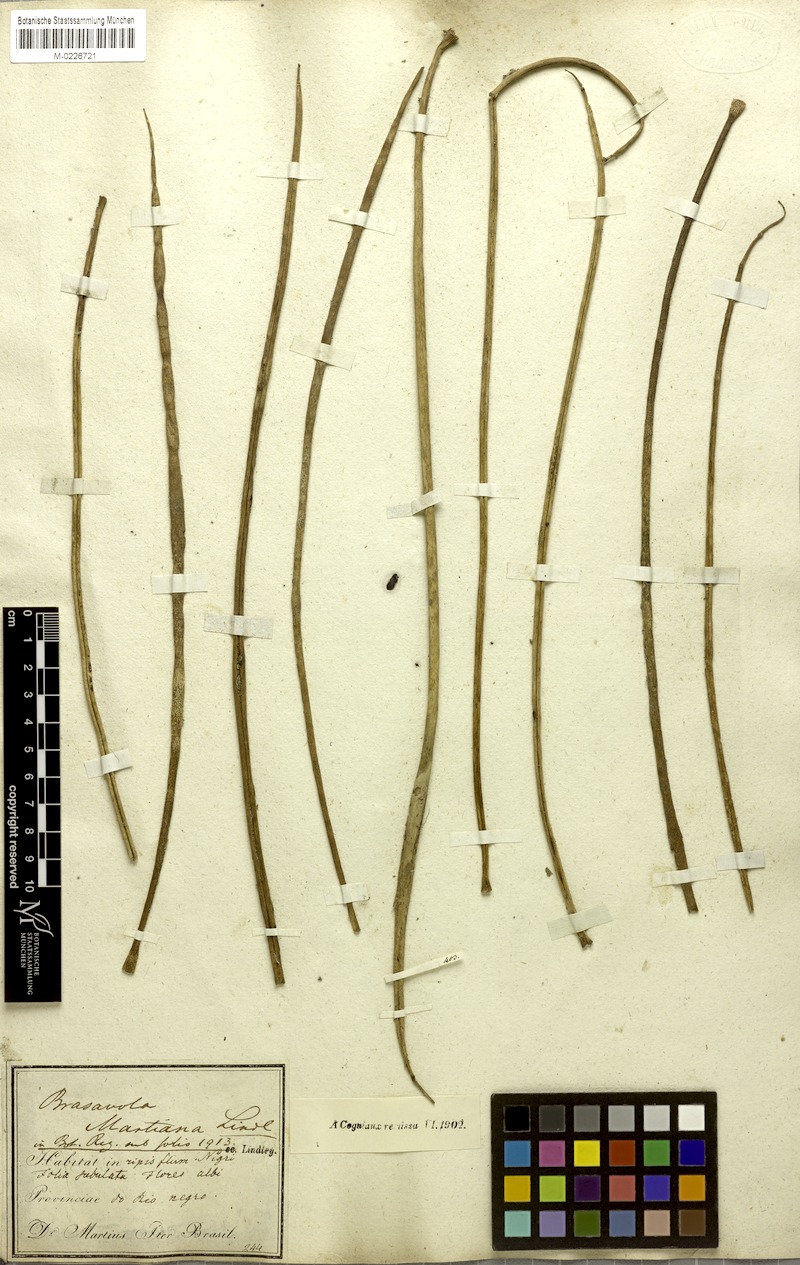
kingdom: Plantae
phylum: Tracheophyta
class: Liliopsida
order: Asparagales
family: Orchidaceae
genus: Brassavola
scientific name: Brassavola martiana
